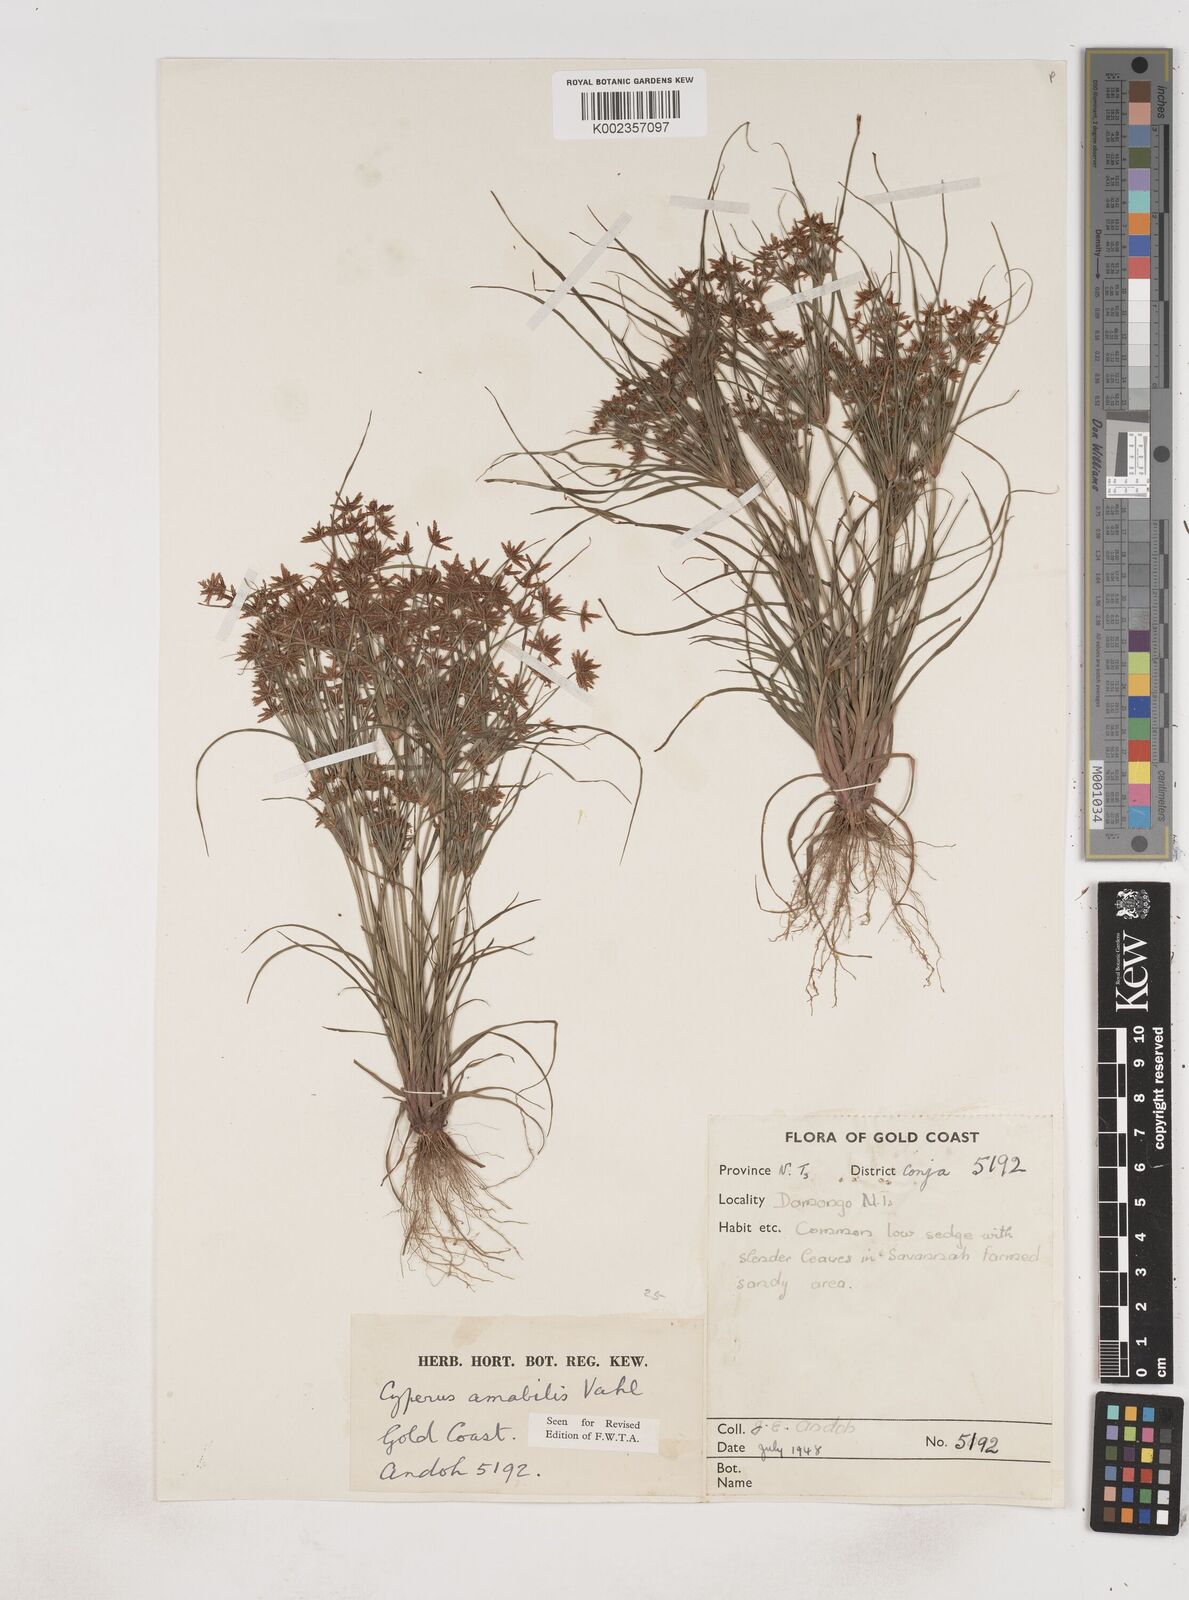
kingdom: Plantae
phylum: Tracheophyta
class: Liliopsida
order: Poales
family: Cyperaceae
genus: Cyperus
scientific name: Cyperus amabilis
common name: Foothill flat sedge
